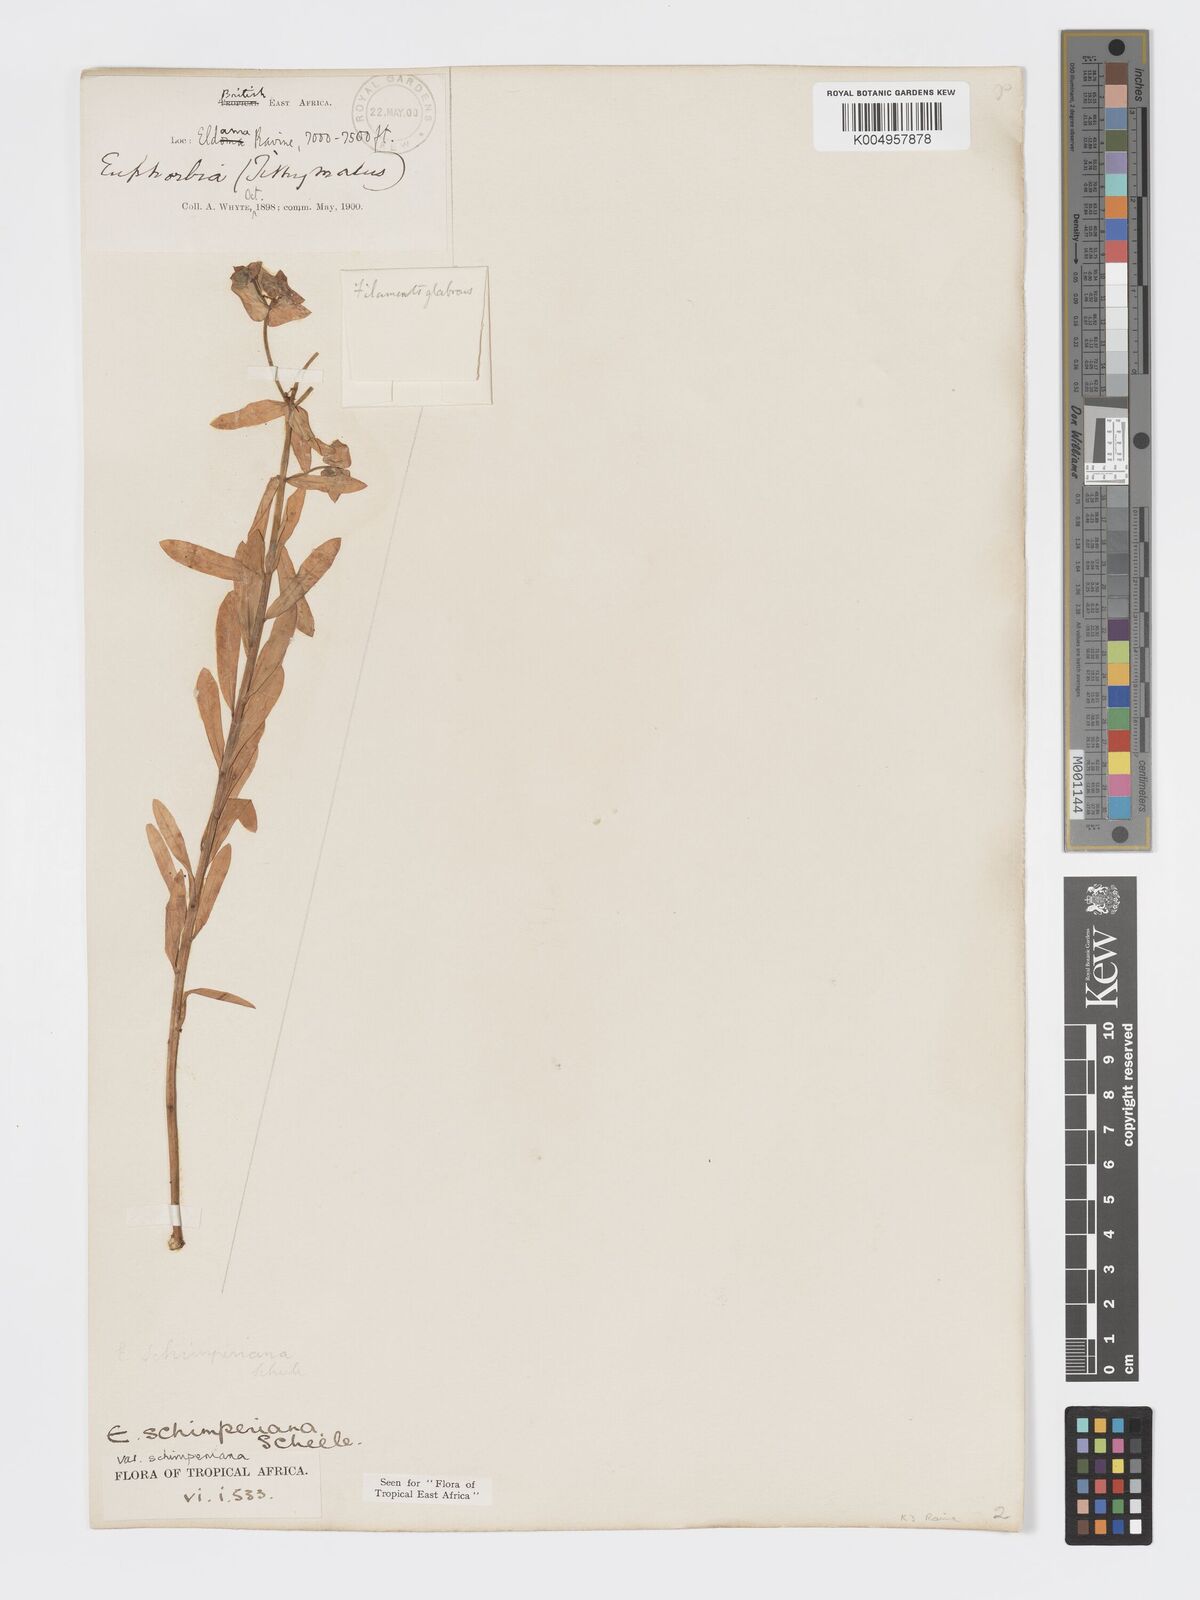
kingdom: Plantae
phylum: Tracheophyta
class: Magnoliopsida
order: Malpighiales
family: Euphorbiaceae
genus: Euphorbia
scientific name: Euphorbia schimperiana
